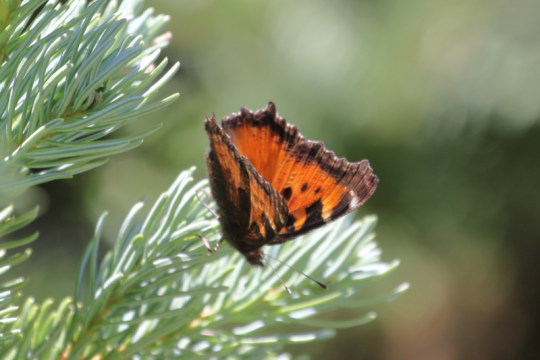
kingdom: Animalia
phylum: Arthropoda
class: Insecta
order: Lepidoptera
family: Nymphalidae
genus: Nymphalis
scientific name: Nymphalis californica
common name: California Tortoiseshell
